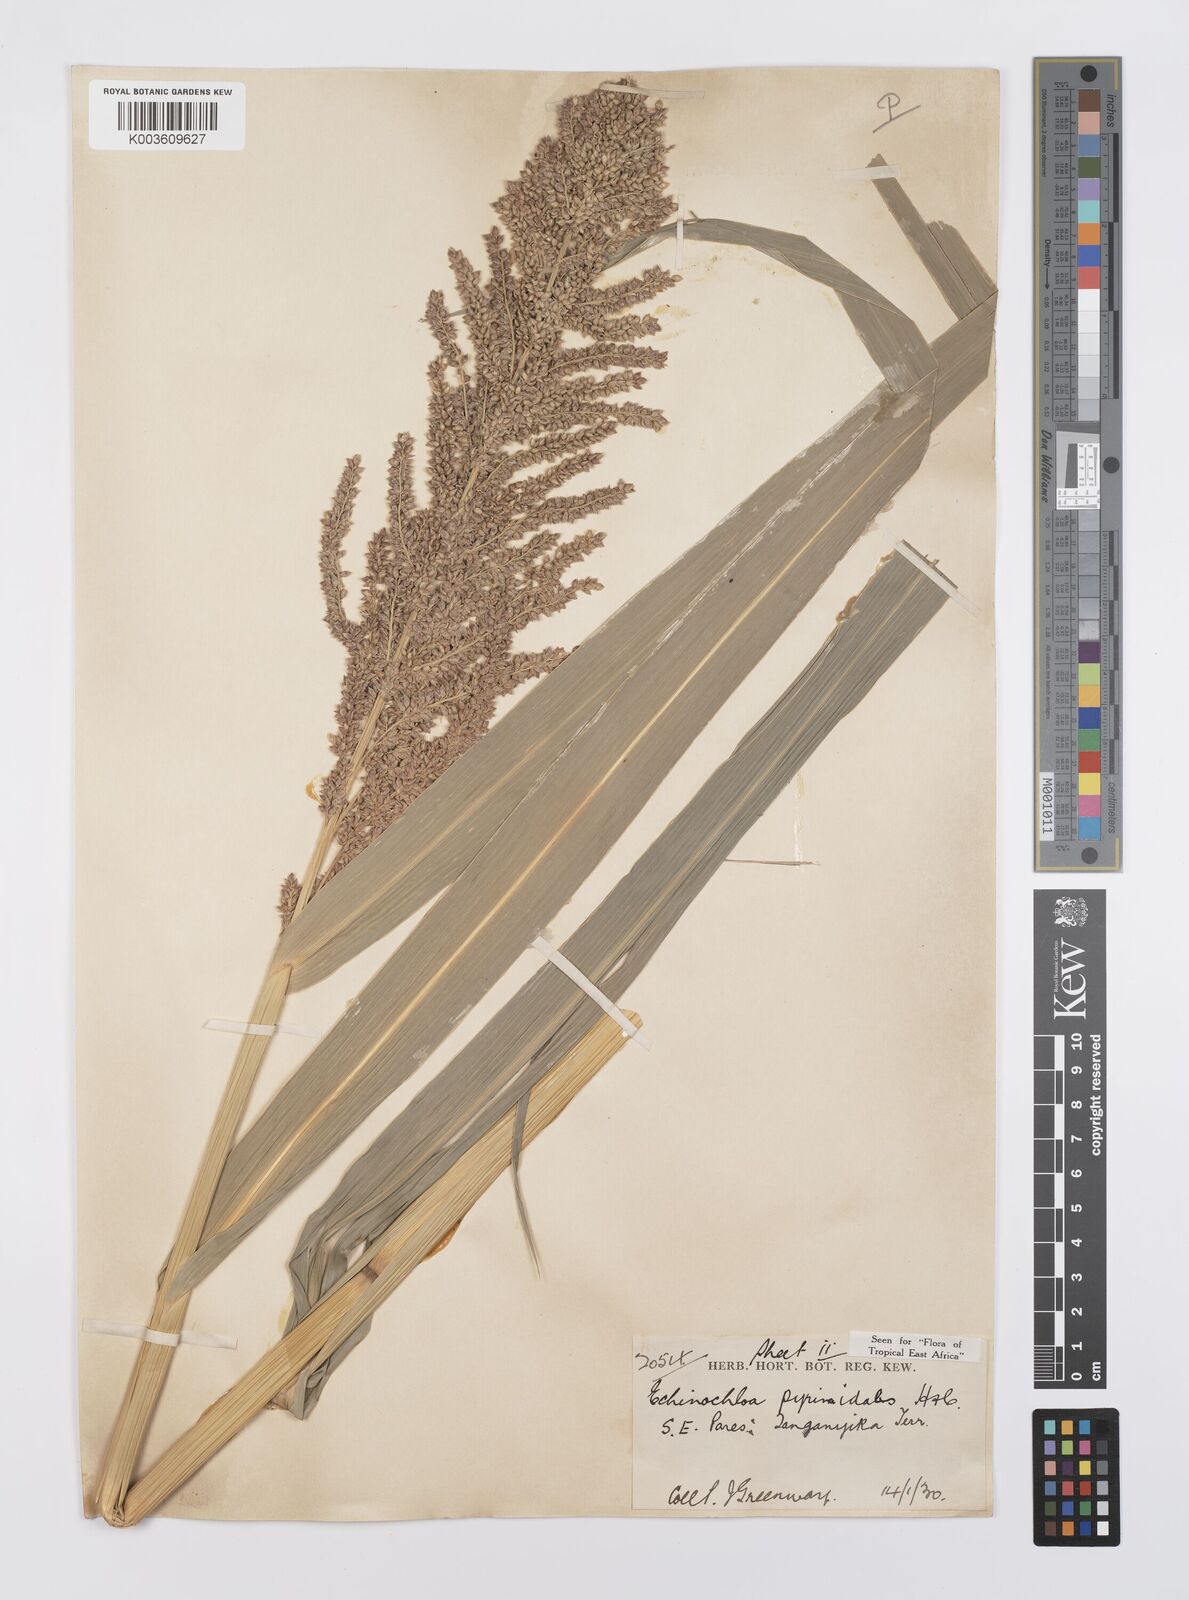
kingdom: Plantae
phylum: Tracheophyta
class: Liliopsida
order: Poales
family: Poaceae
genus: Echinochloa
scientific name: Echinochloa pyramidalis
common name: Antelope grass
